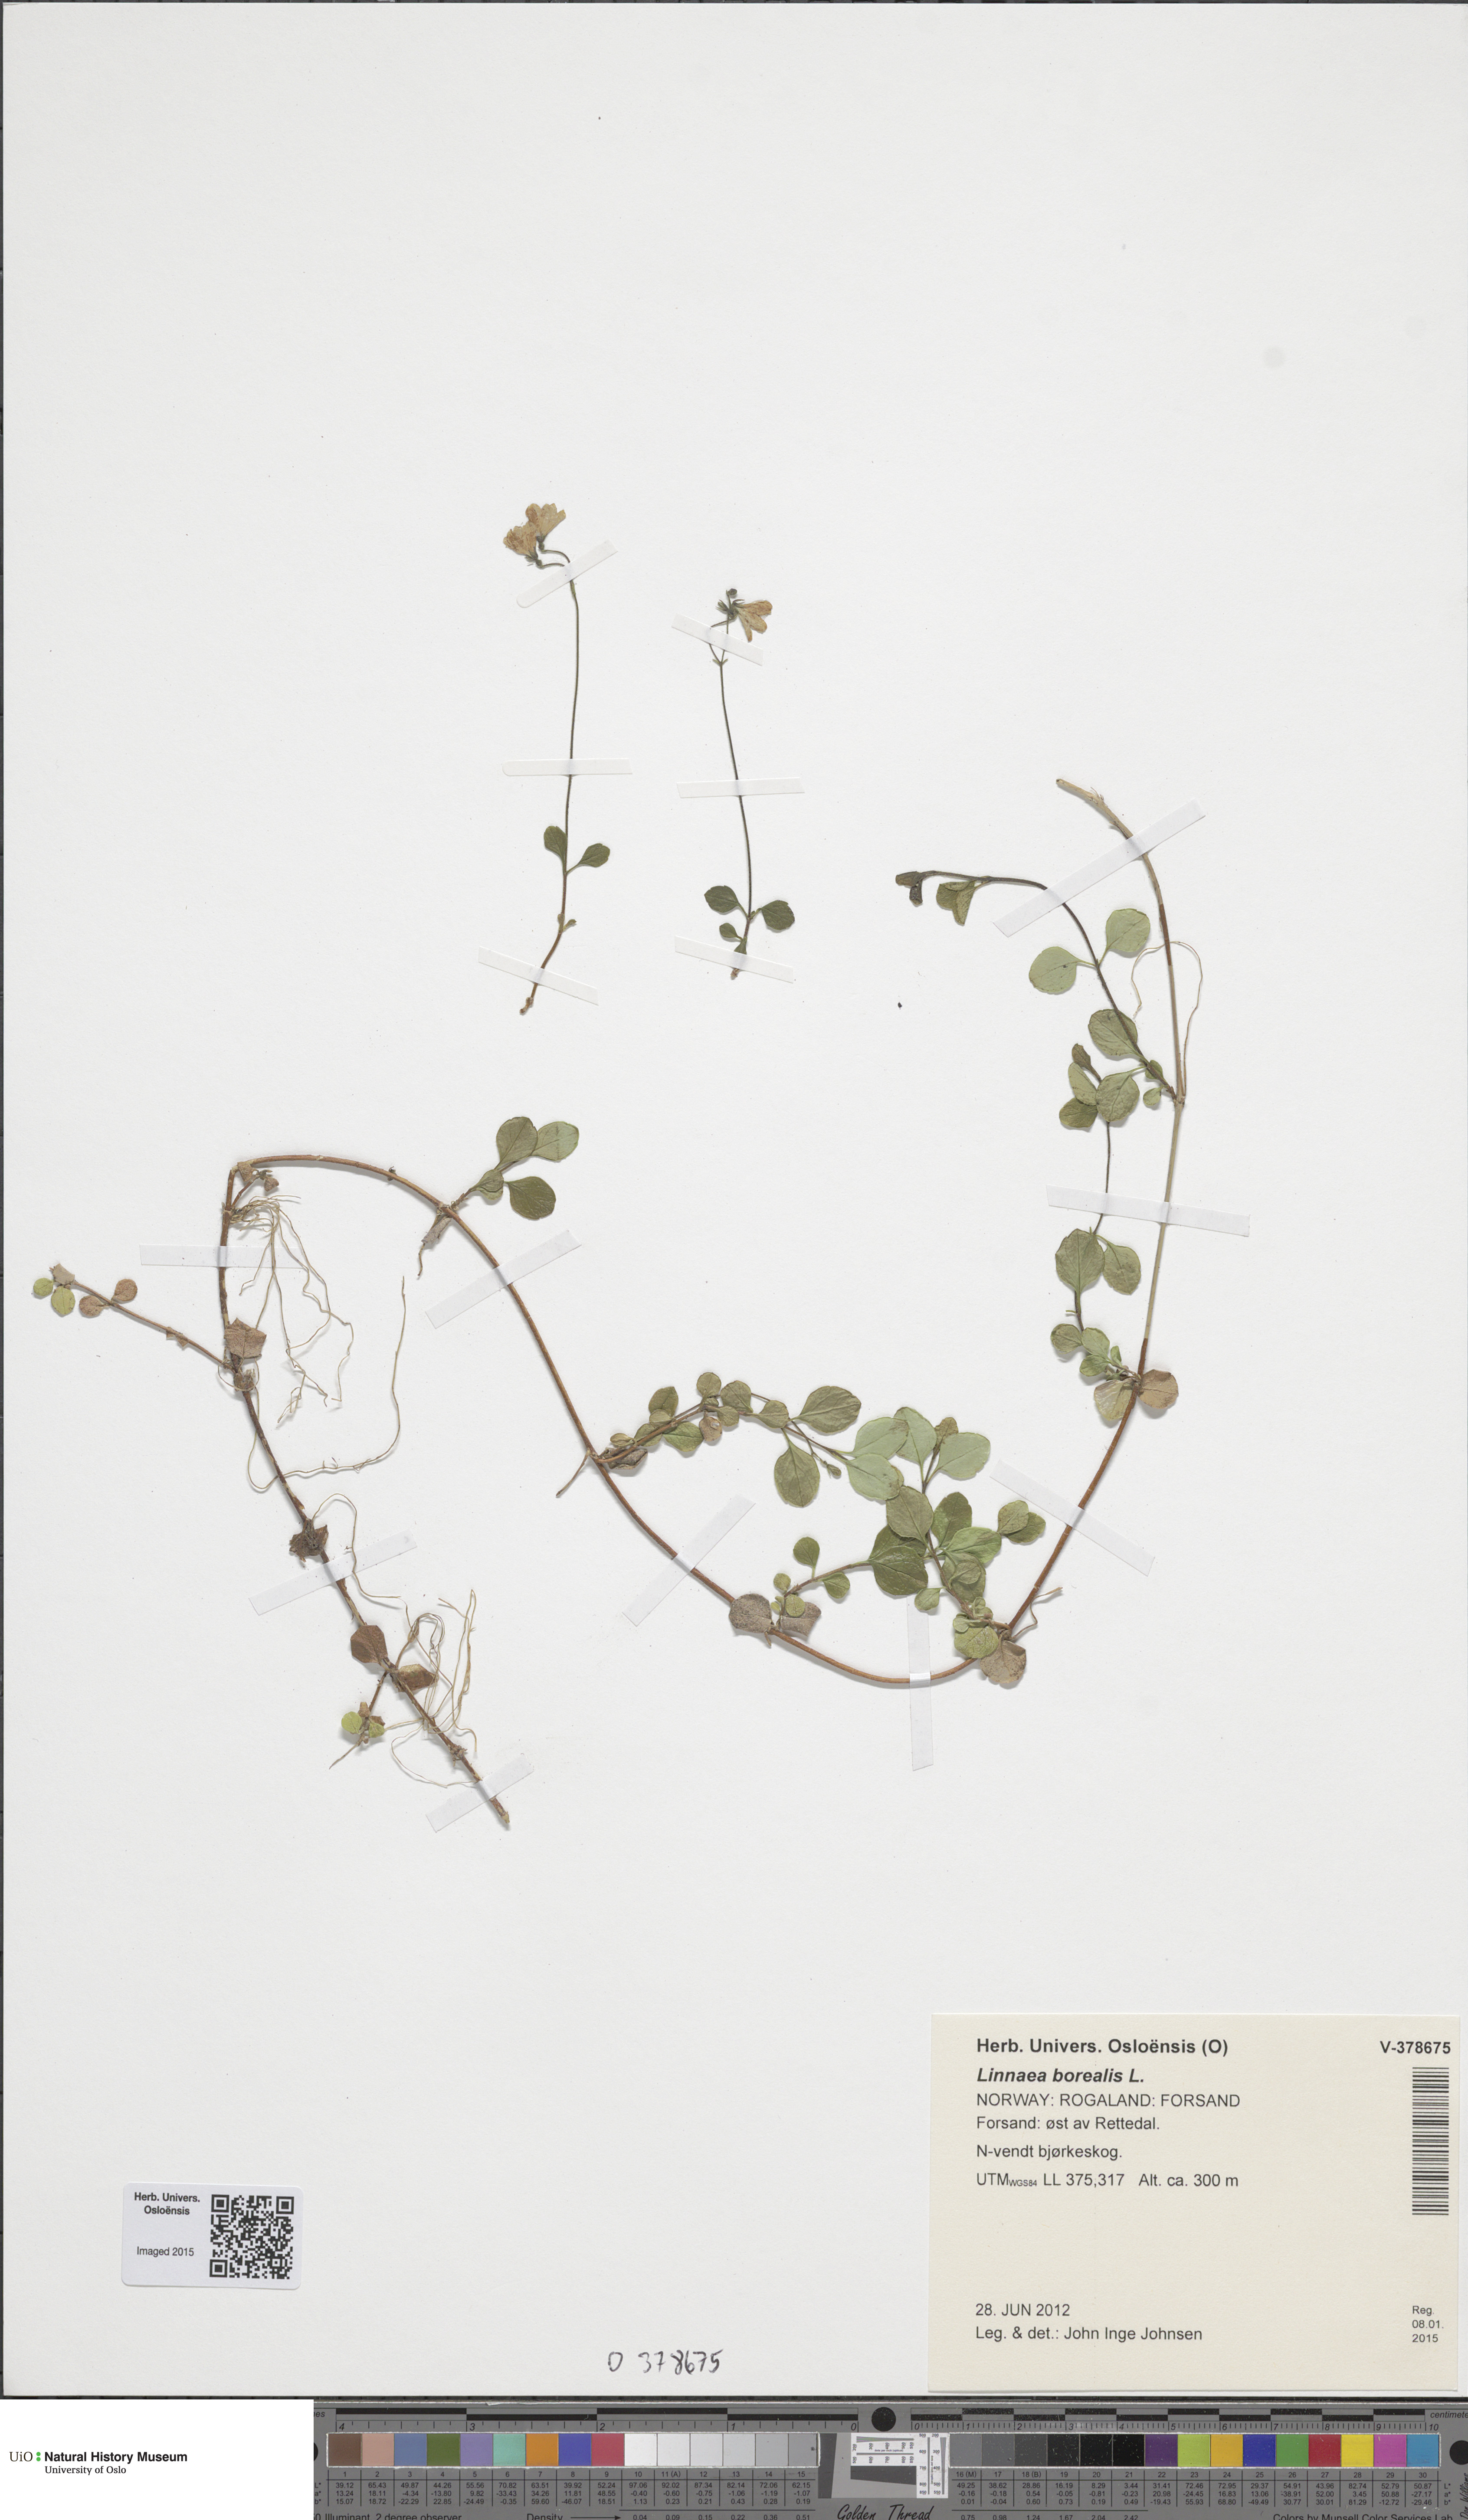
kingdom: Plantae
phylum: Tracheophyta
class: Magnoliopsida
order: Dipsacales
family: Caprifoliaceae
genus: Linnaea
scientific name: Linnaea borealis
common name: Twinflower
